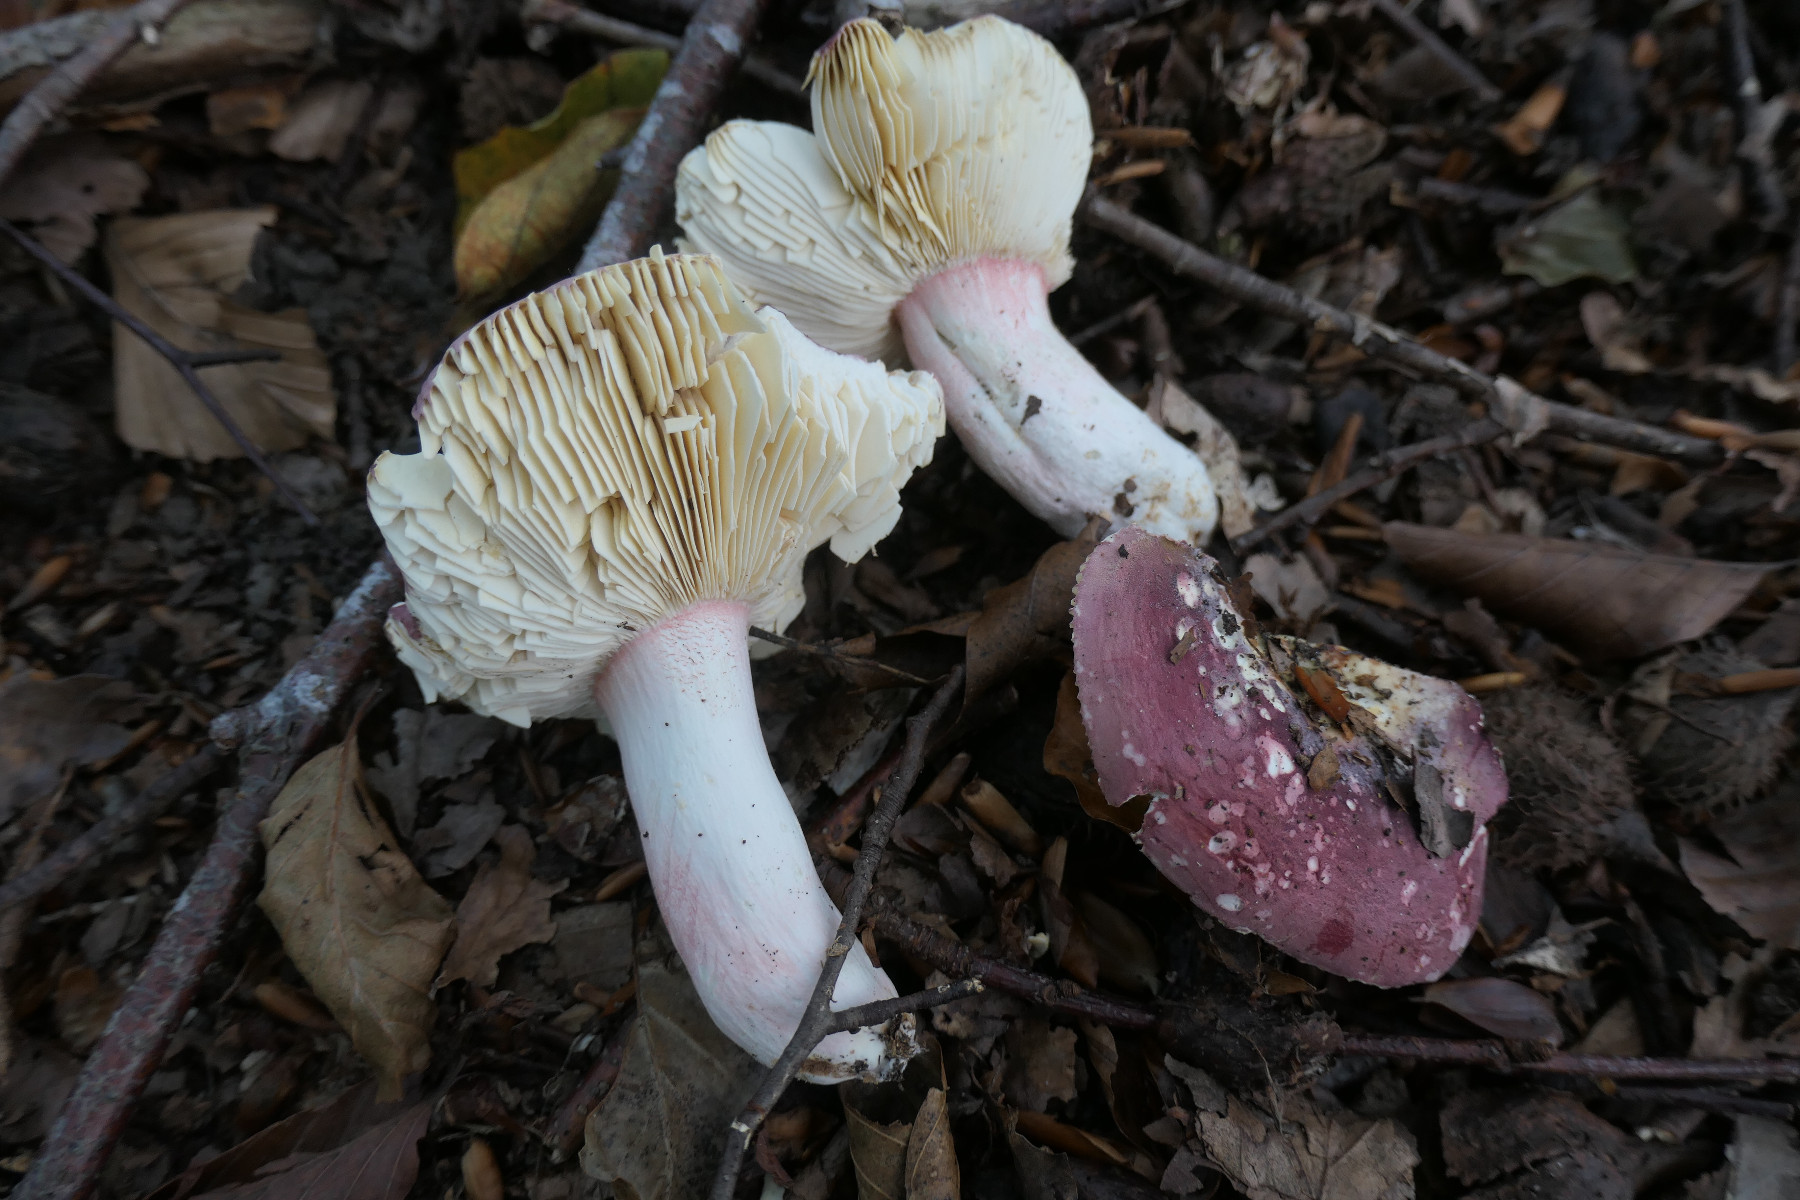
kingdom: Fungi
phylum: Basidiomycota
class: Agaricomycetes
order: Russulales
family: Russulaceae
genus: Russula
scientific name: Russula olivacea
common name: stor skørhat
